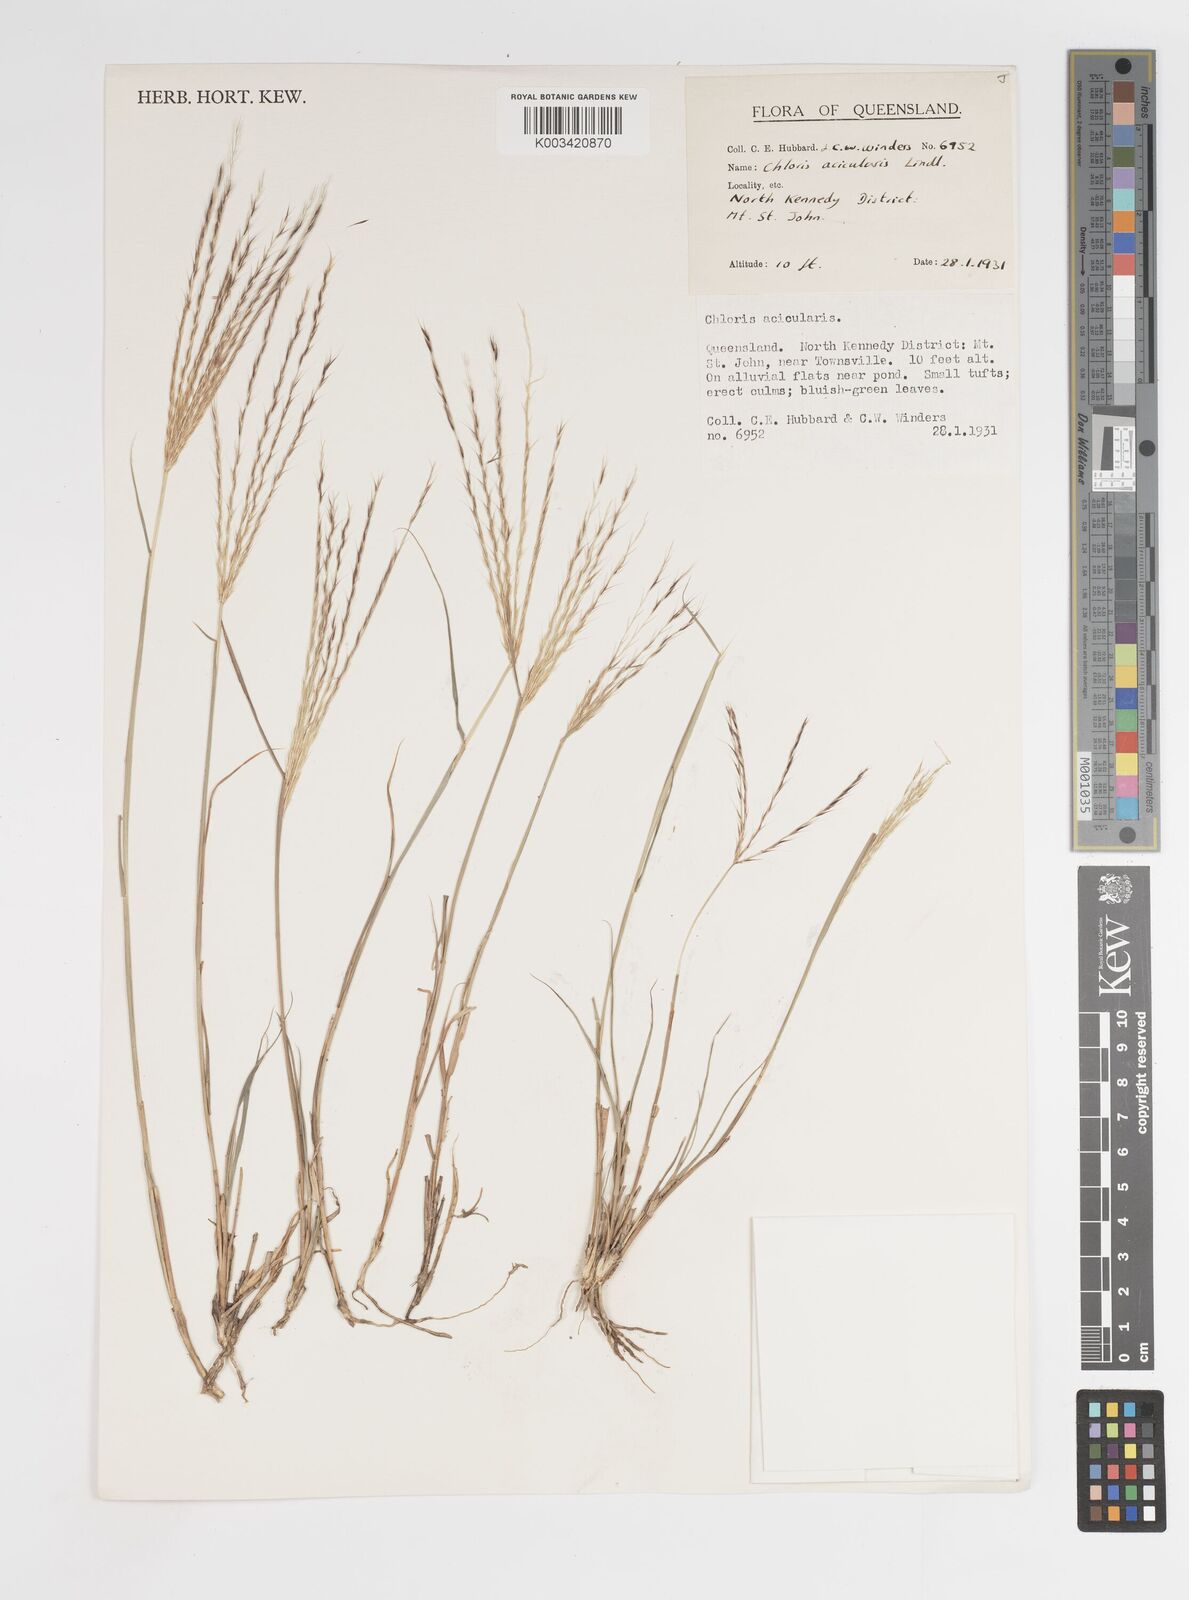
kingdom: Plantae
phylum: Tracheophyta
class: Liliopsida
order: Poales
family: Poaceae
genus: Enteropogon
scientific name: Enteropogon acicularis
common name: Curly windmill grass
